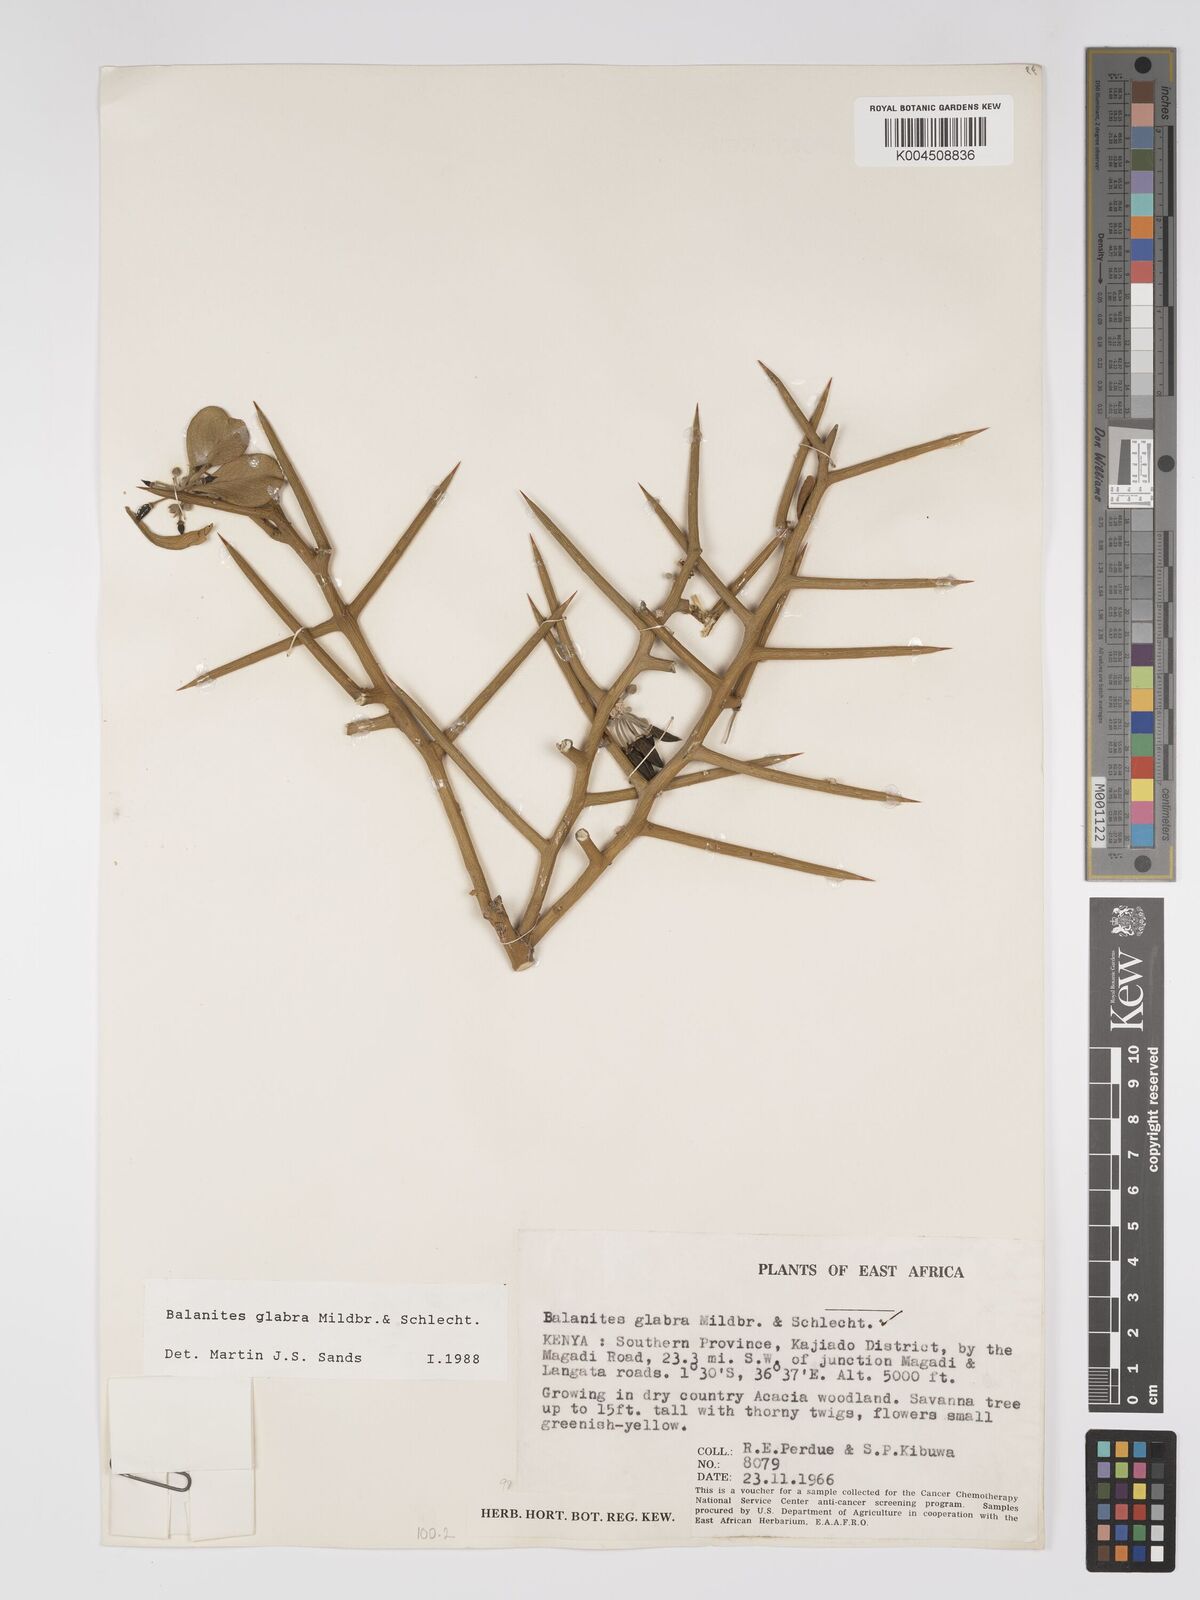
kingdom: Plantae
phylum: Tracheophyta
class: Magnoliopsida
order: Zygophyllales
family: Zygophyllaceae
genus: Balanites
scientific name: Balanites glabra
